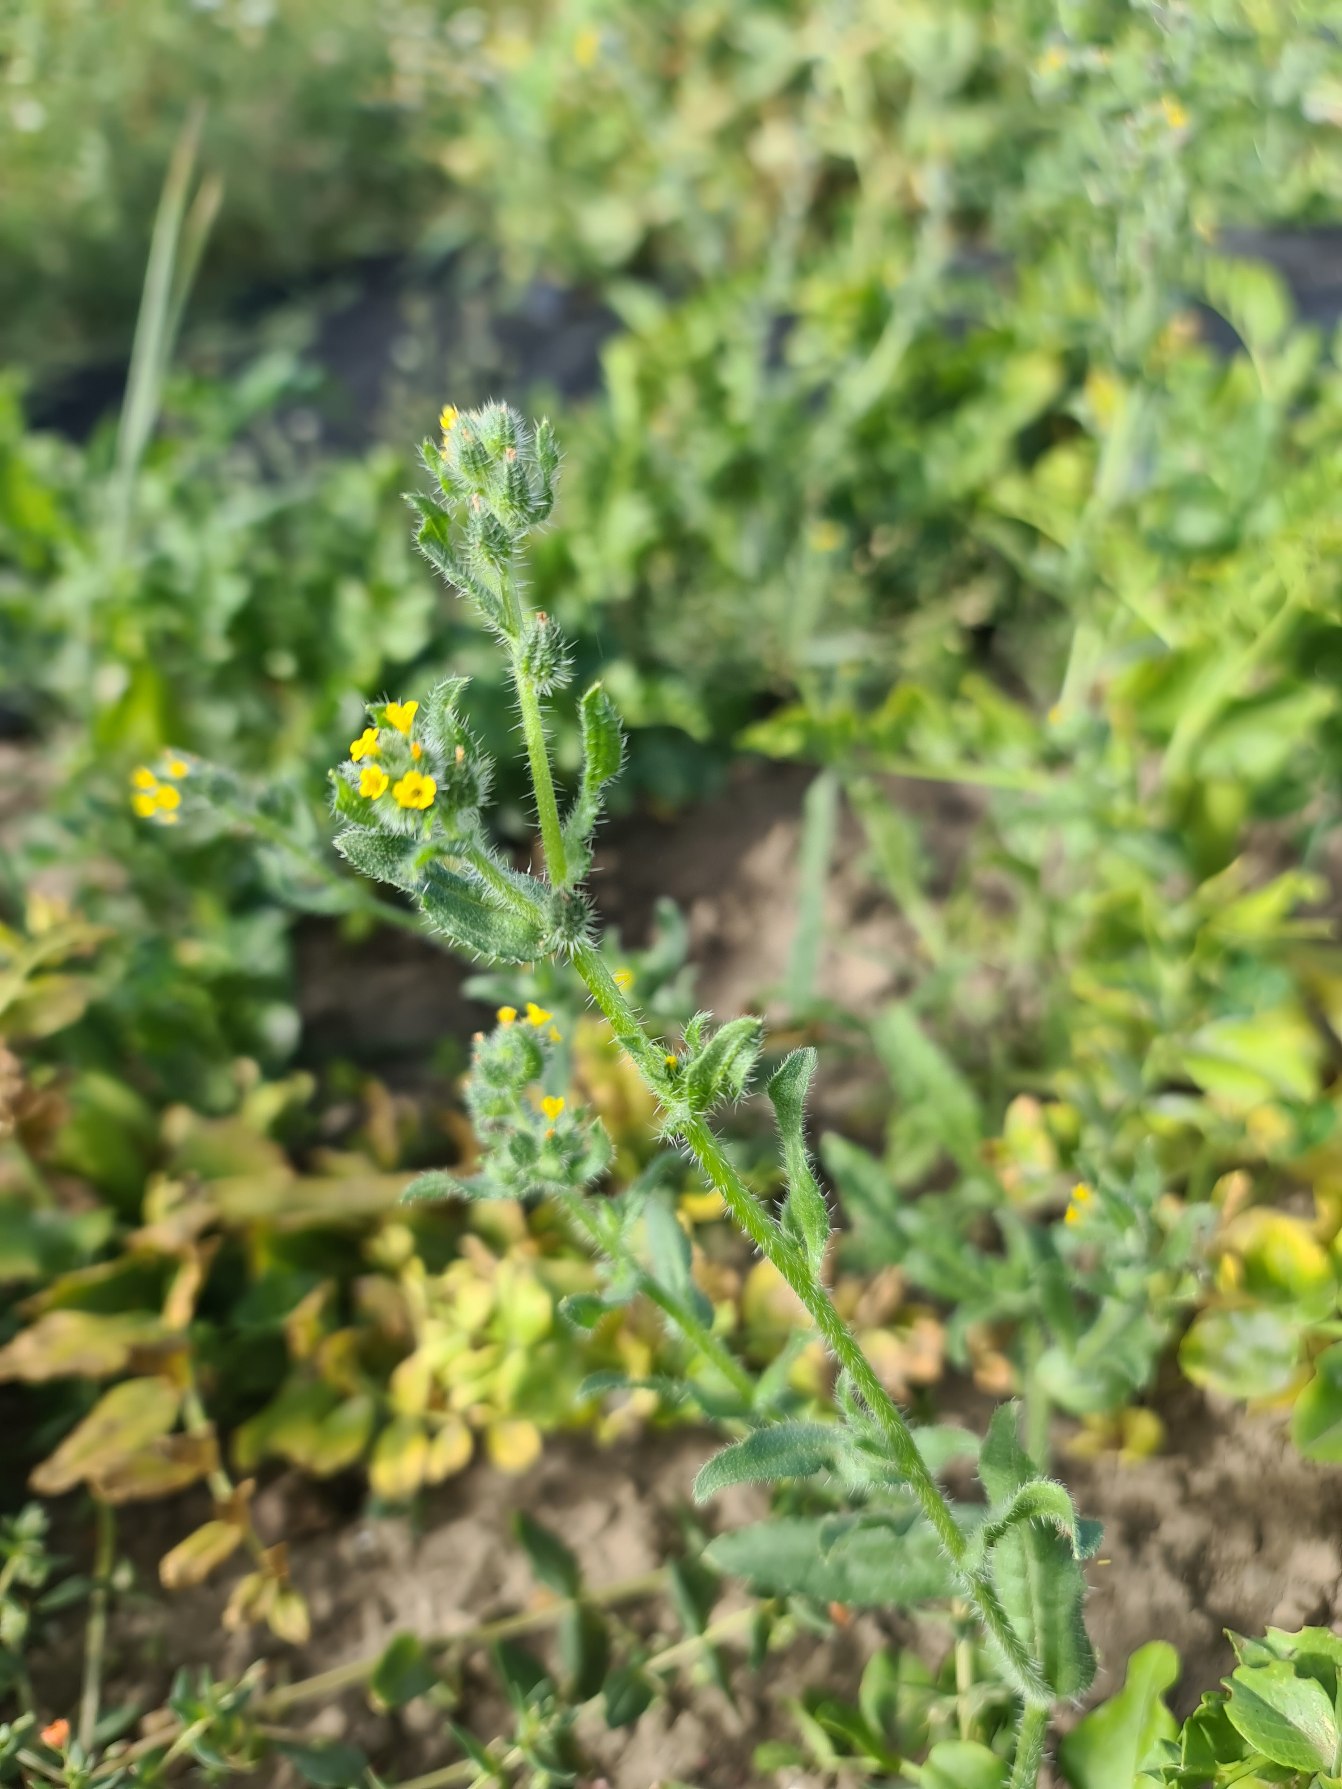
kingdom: Plantae
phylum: Tracheophyta
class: Magnoliopsida
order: Boraginales
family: Boraginaceae
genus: Amsinckia
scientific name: Amsinckia menziesii
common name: Småblomstret gulurt
